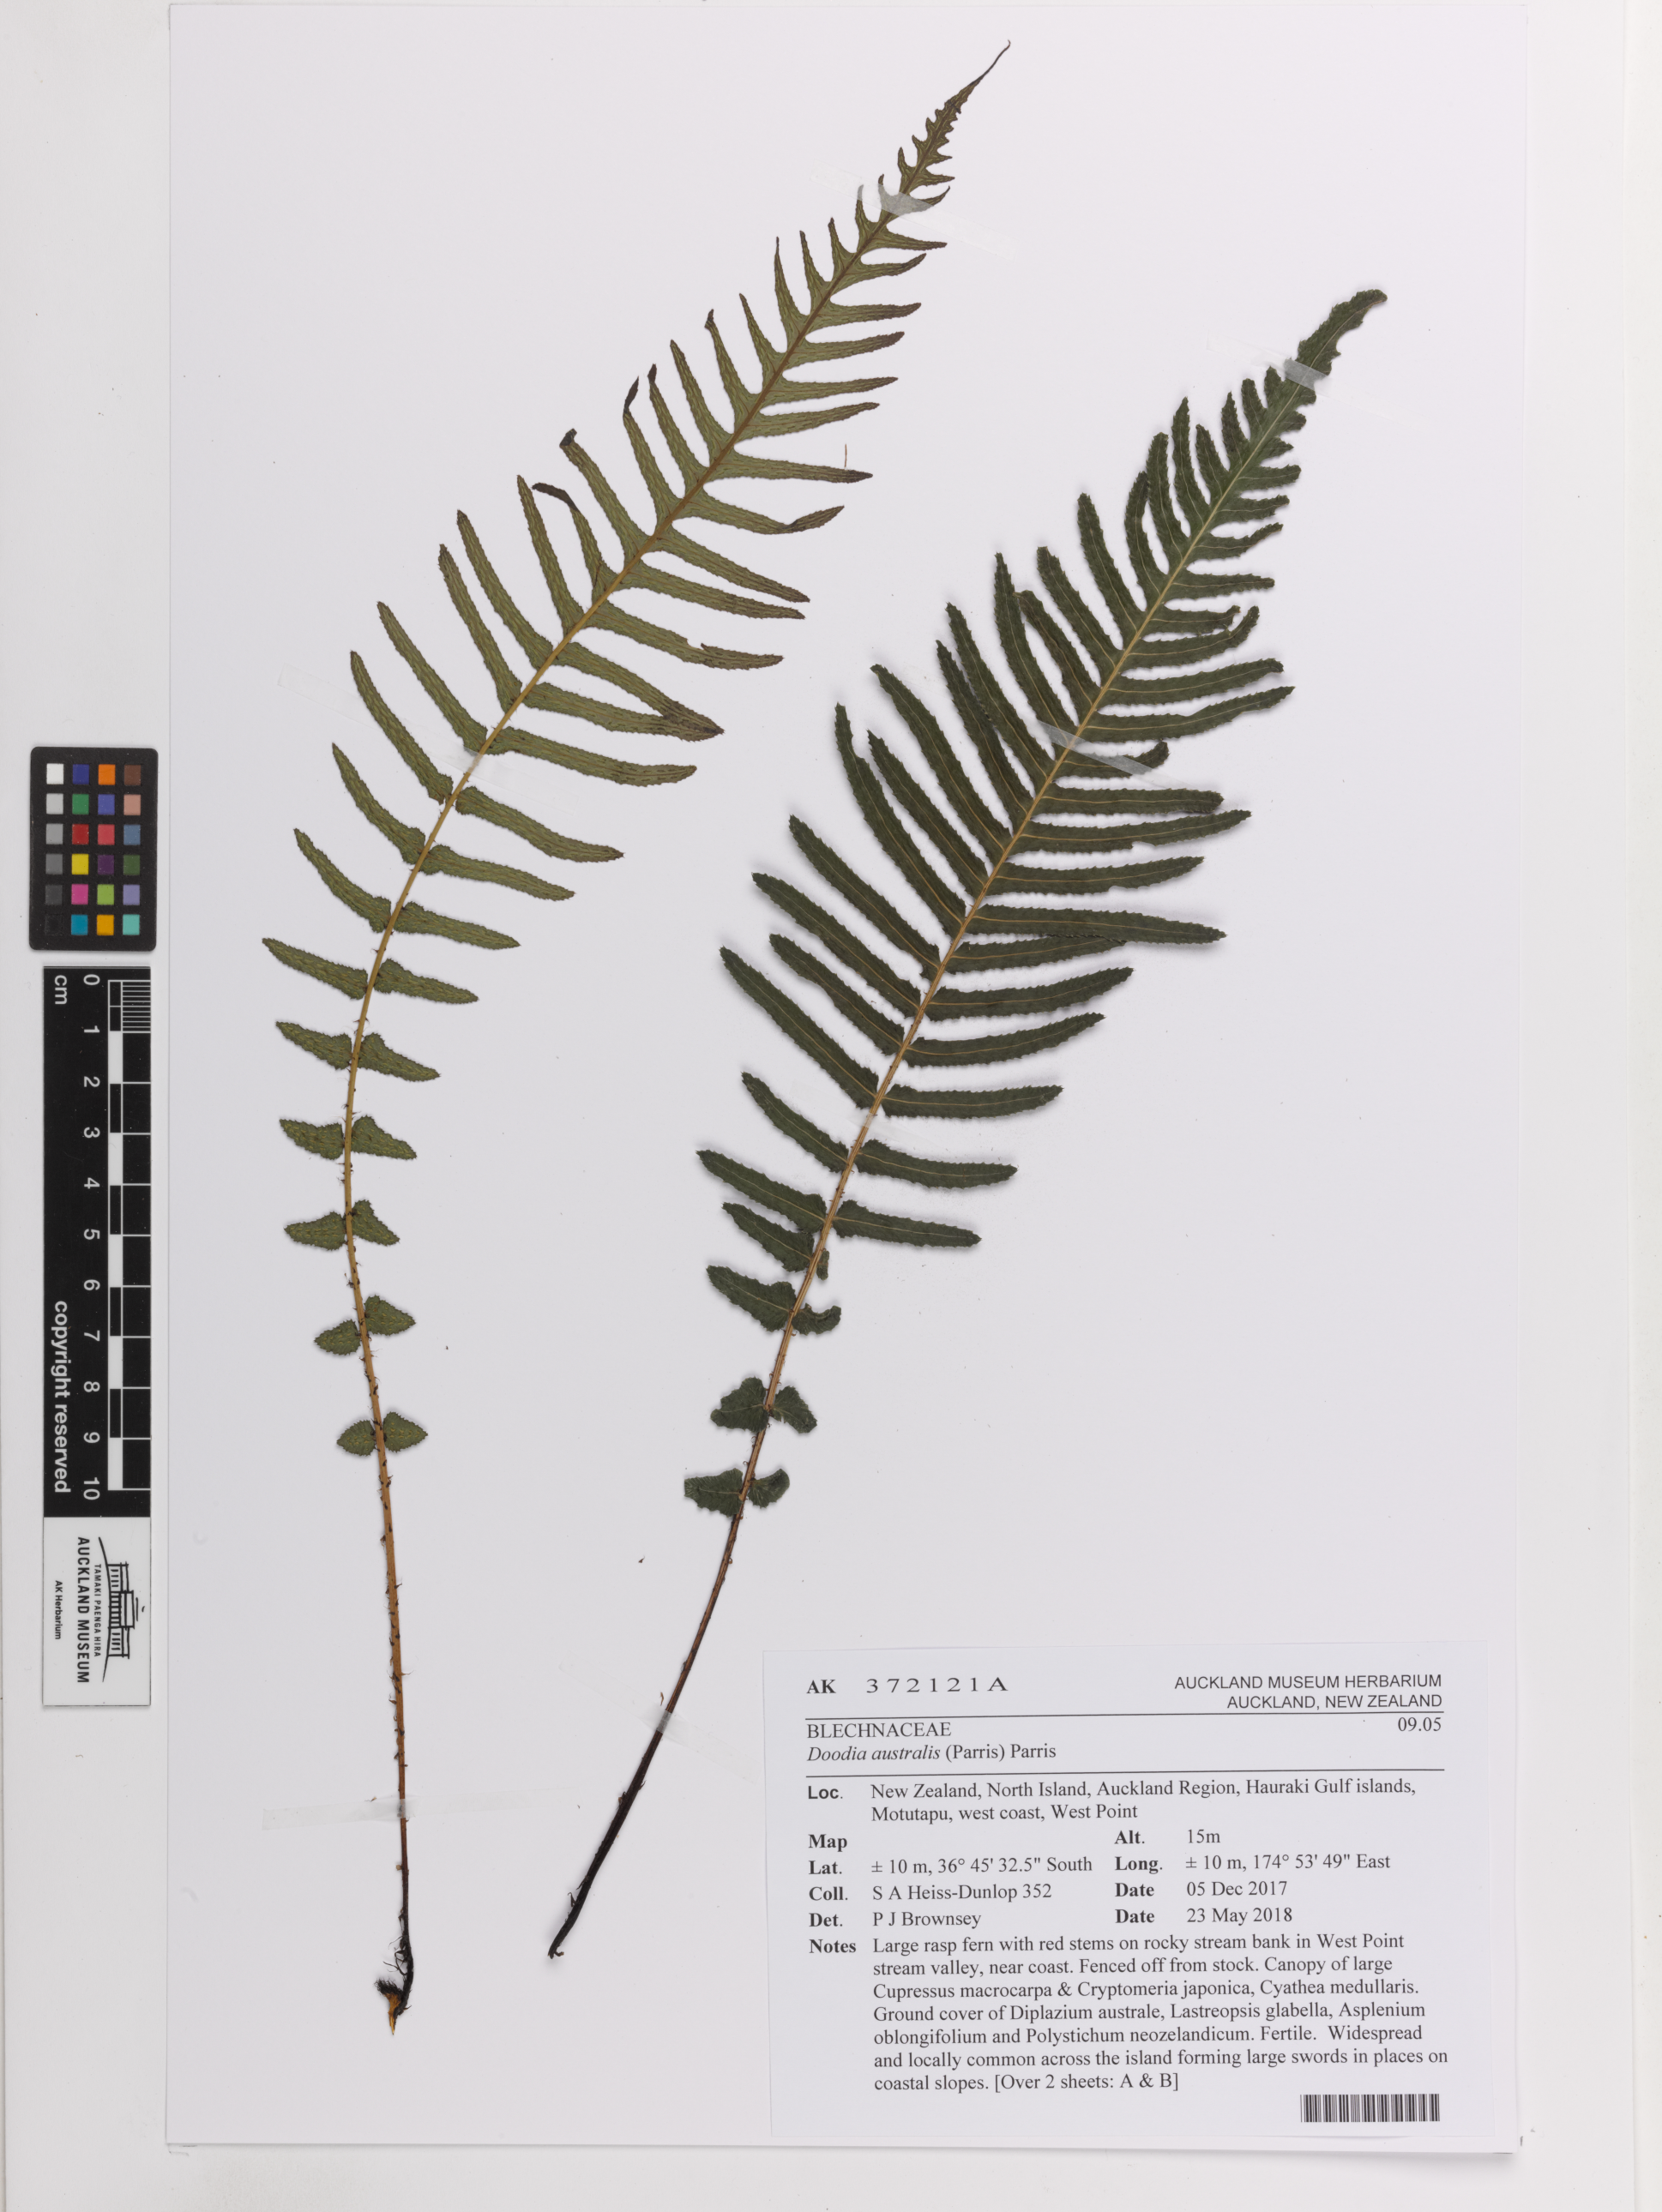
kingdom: Plantae
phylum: Tracheophyta
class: Polypodiopsida
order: Polypodiales
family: Blechnaceae
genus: Doodia
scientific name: Doodia australis
